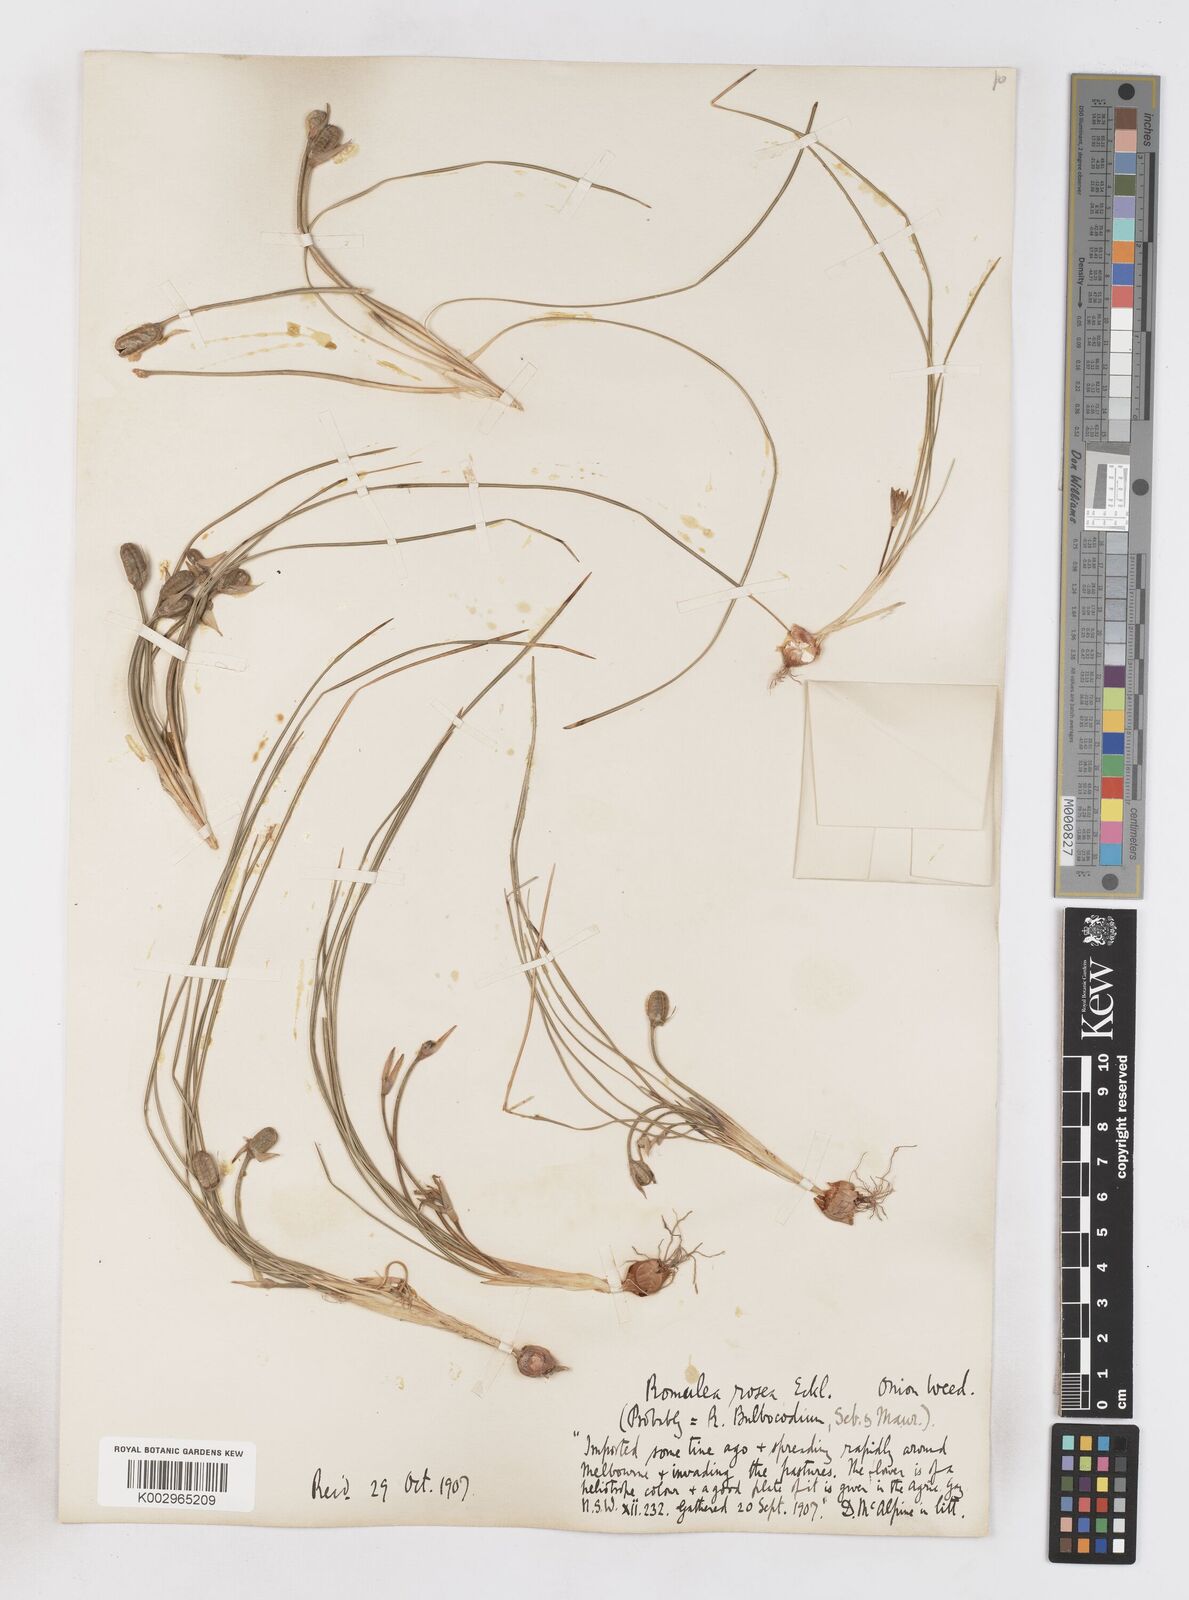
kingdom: Plantae
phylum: Tracheophyta
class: Liliopsida
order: Asparagales
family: Iridaceae
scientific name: Iridaceae
